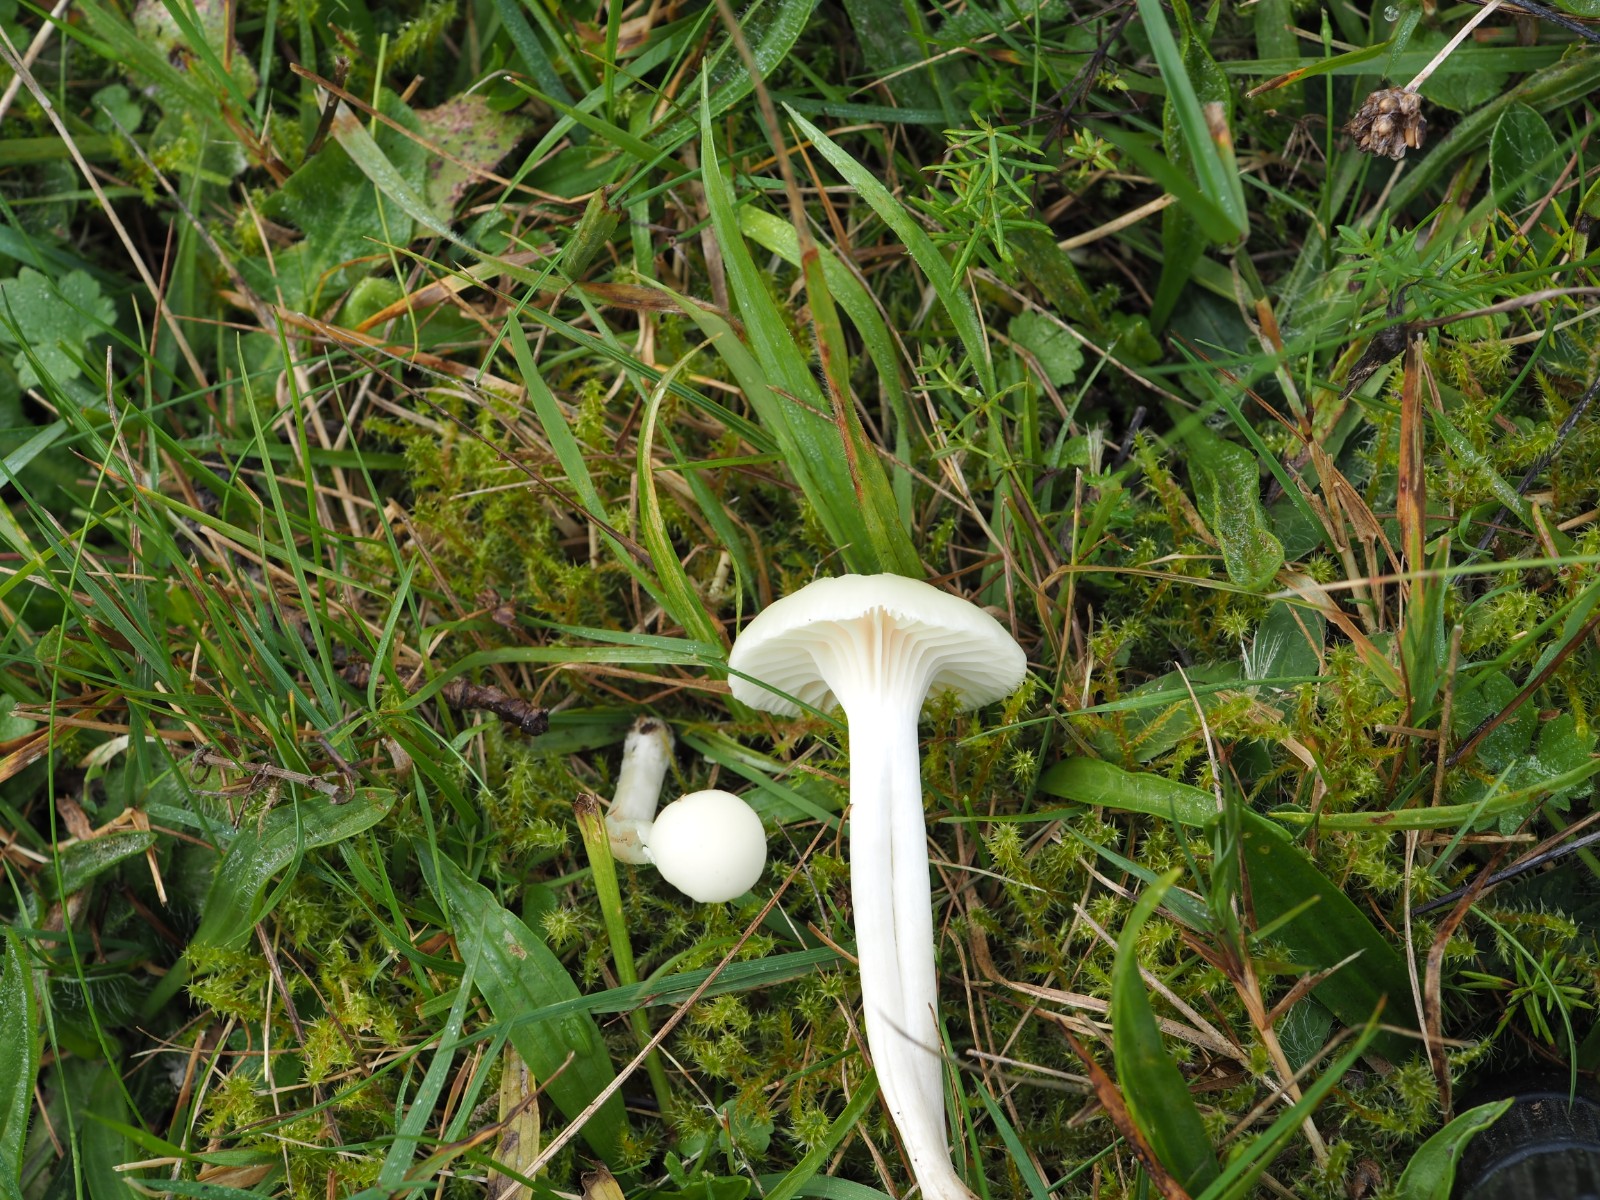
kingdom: Fungi
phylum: Basidiomycota
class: Agaricomycetes
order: Agaricales
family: Hygrophoraceae
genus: Cuphophyllus
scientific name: Cuphophyllus virgineus
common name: snehvid vokshat
